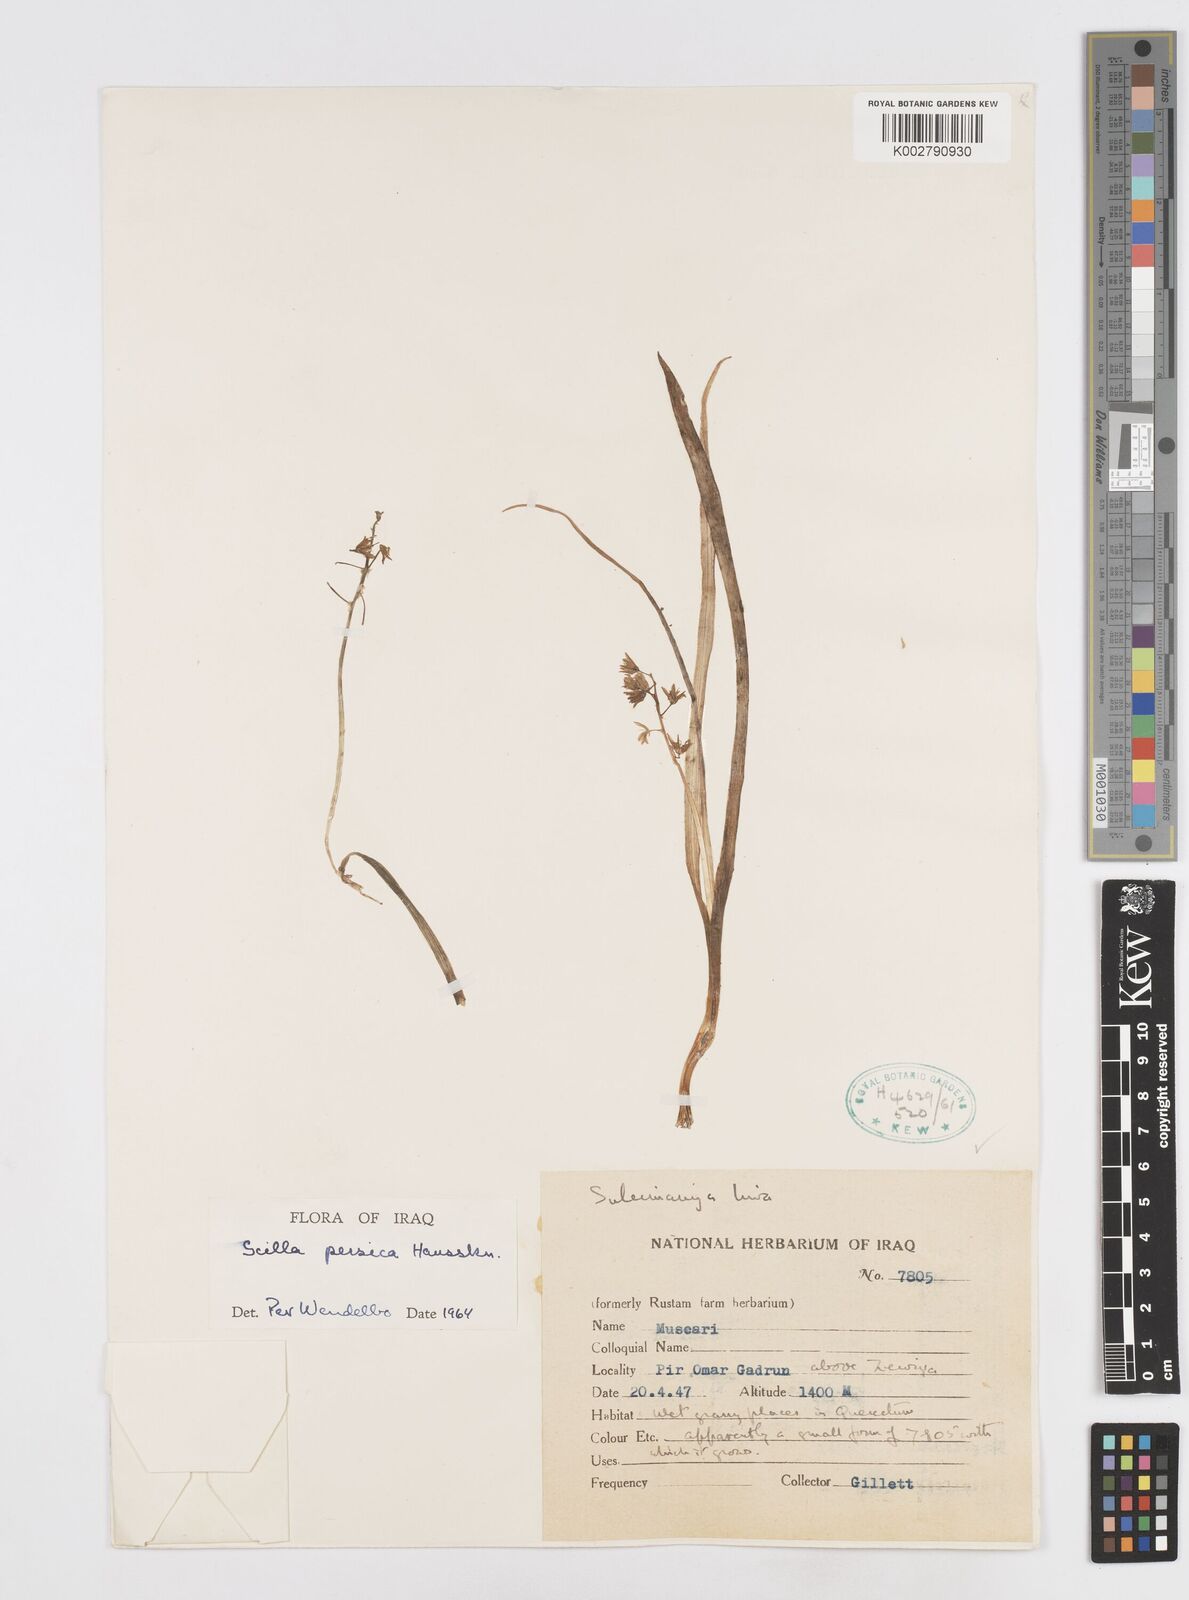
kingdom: Plantae
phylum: Tracheophyta
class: Liliopsida
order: Asparagales
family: Asparagaceae
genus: Zagrosia
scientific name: Zagrosia persica
